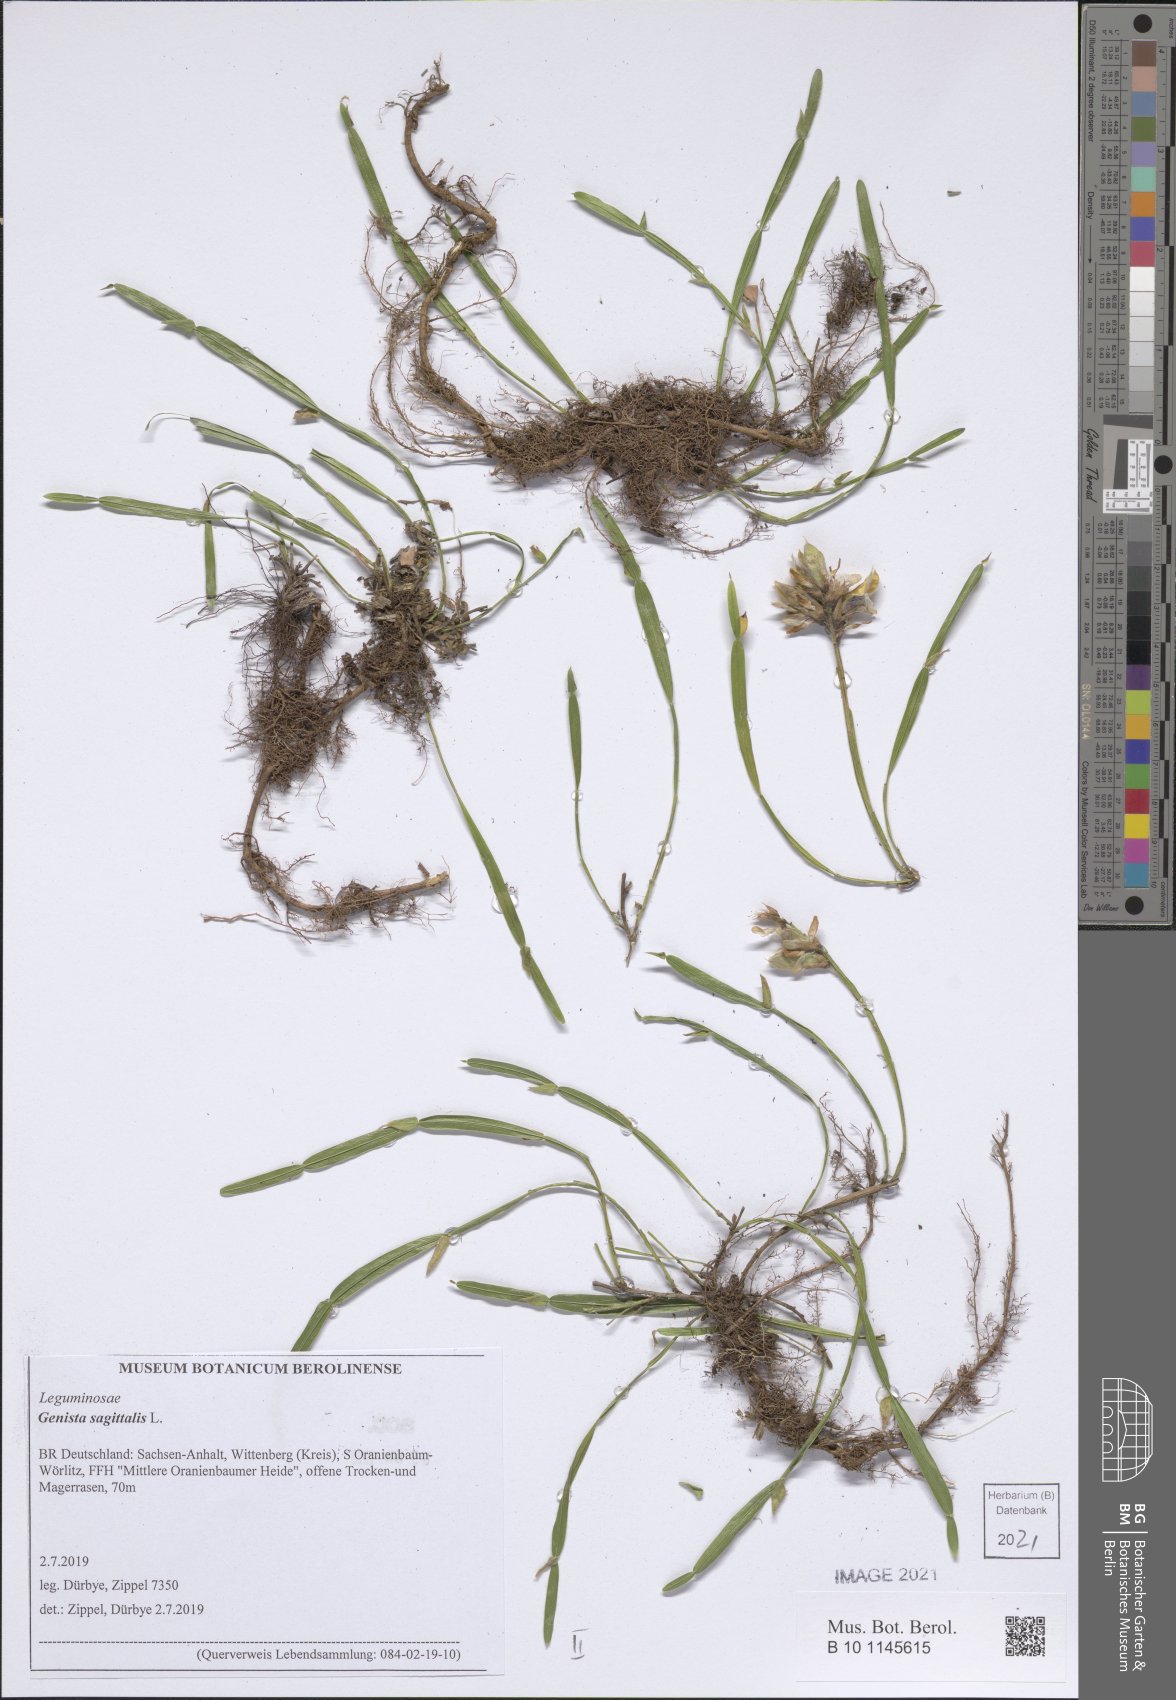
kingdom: Plantae
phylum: Tracheophyta
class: Magnoliopsida
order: Fabales
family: Fabaceae
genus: Genista
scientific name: Genista sagittalis
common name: Winged greenweed
